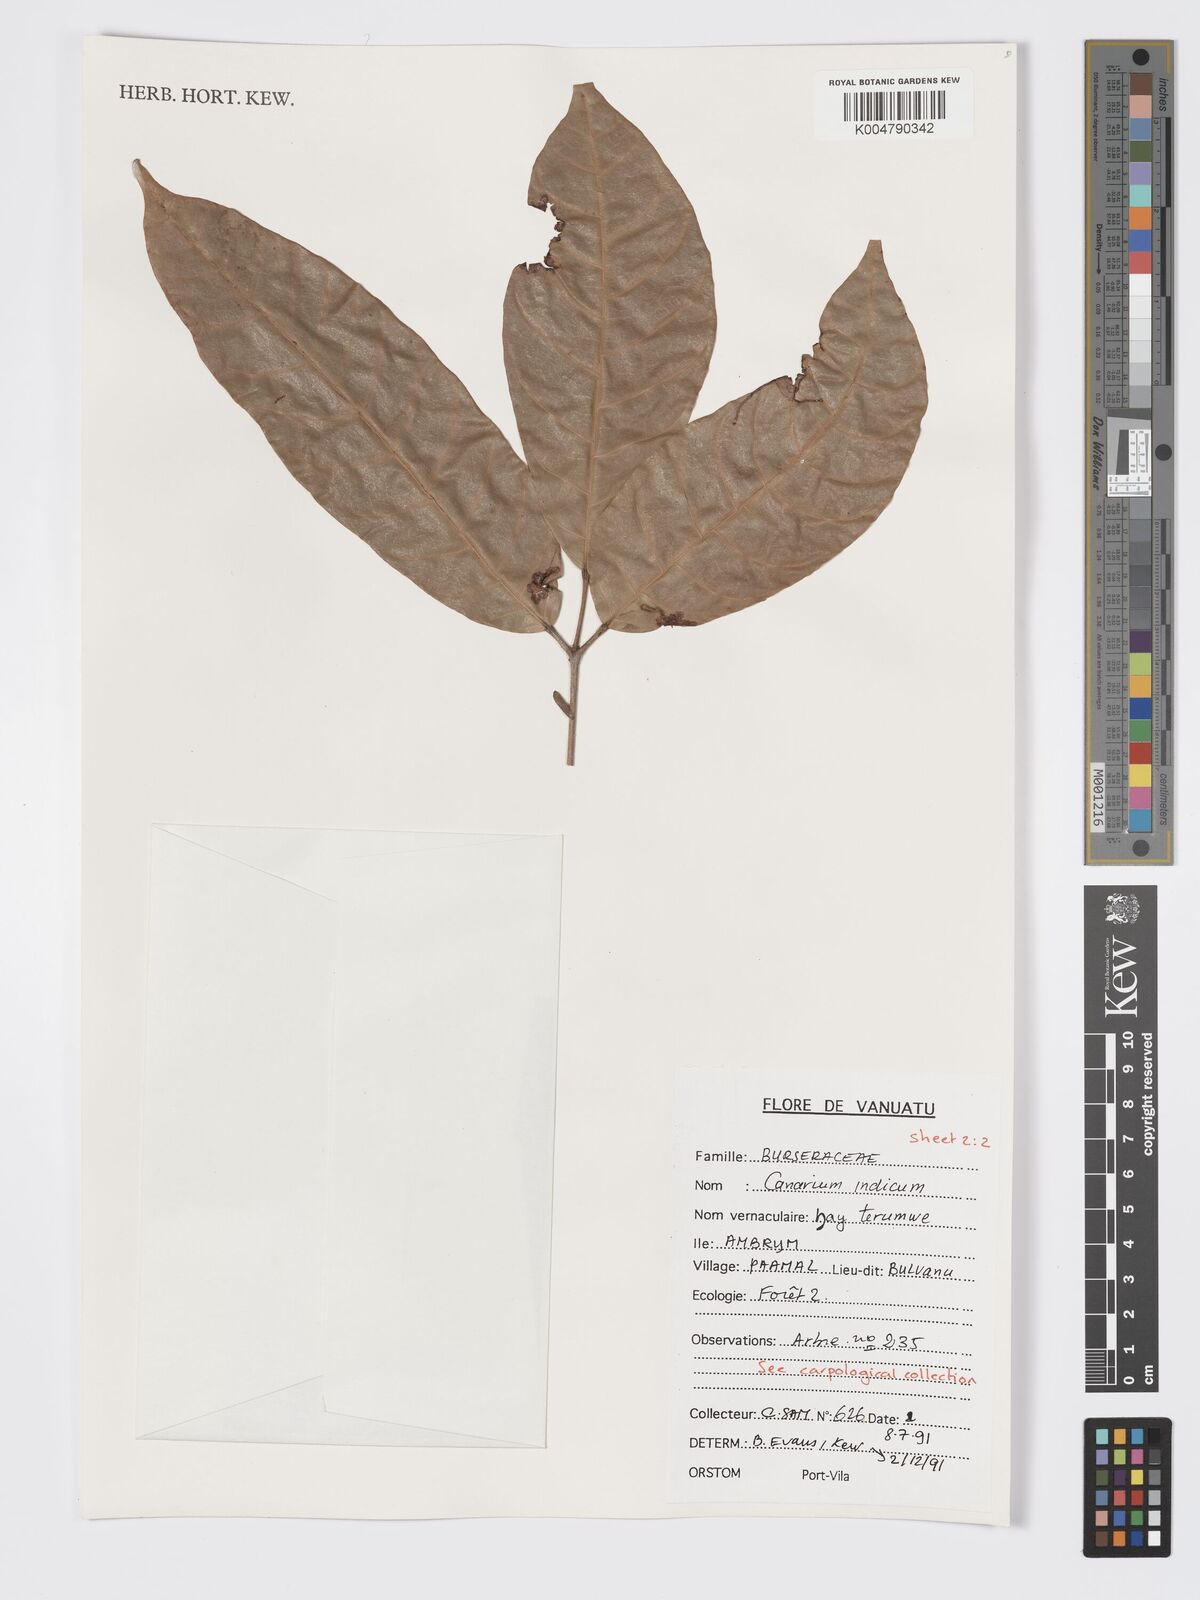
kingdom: Plantae
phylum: Tracheophyta
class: Magnoliopsida
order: Sapindales
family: Burseraceae
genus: Canarium
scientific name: Canarium indicum
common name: Canarium-nut
